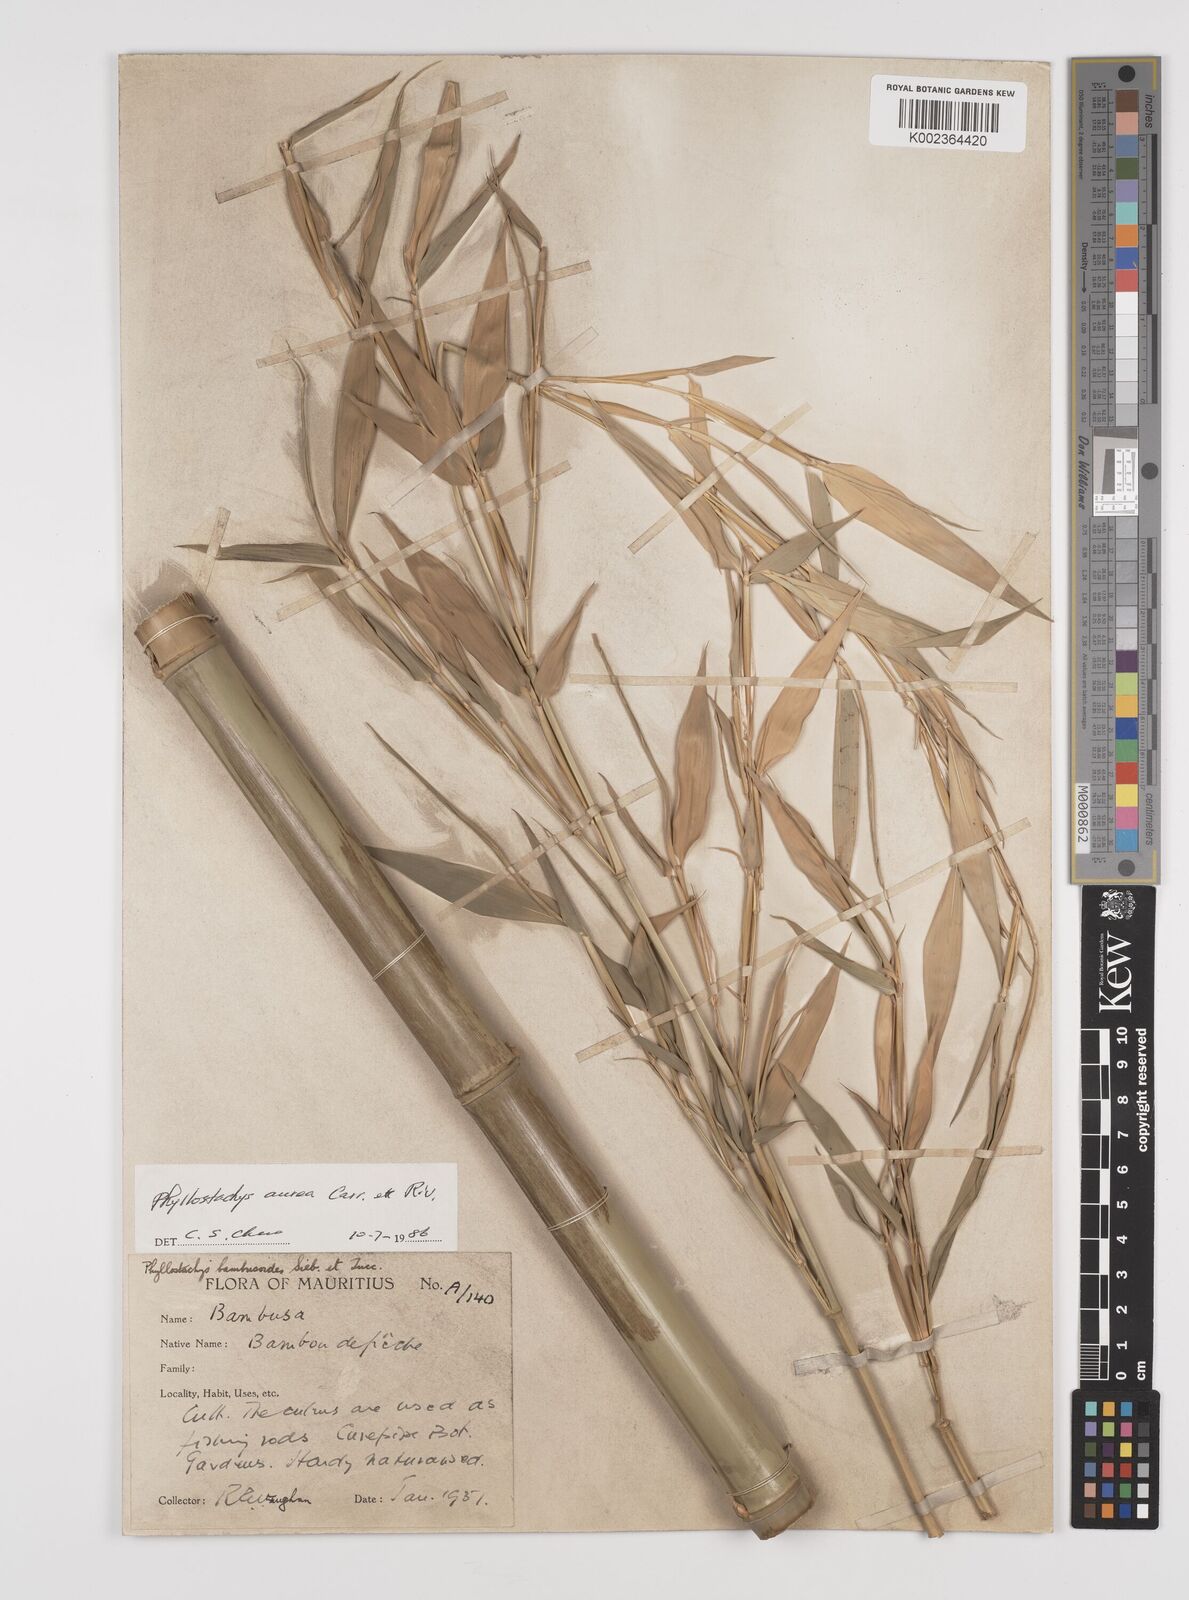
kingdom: Plantae
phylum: Tracheophyta
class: Liliopsida
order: Poales
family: Poaceae
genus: Phyllostachys
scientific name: Phyllostachys aurea
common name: Golden bamboo
